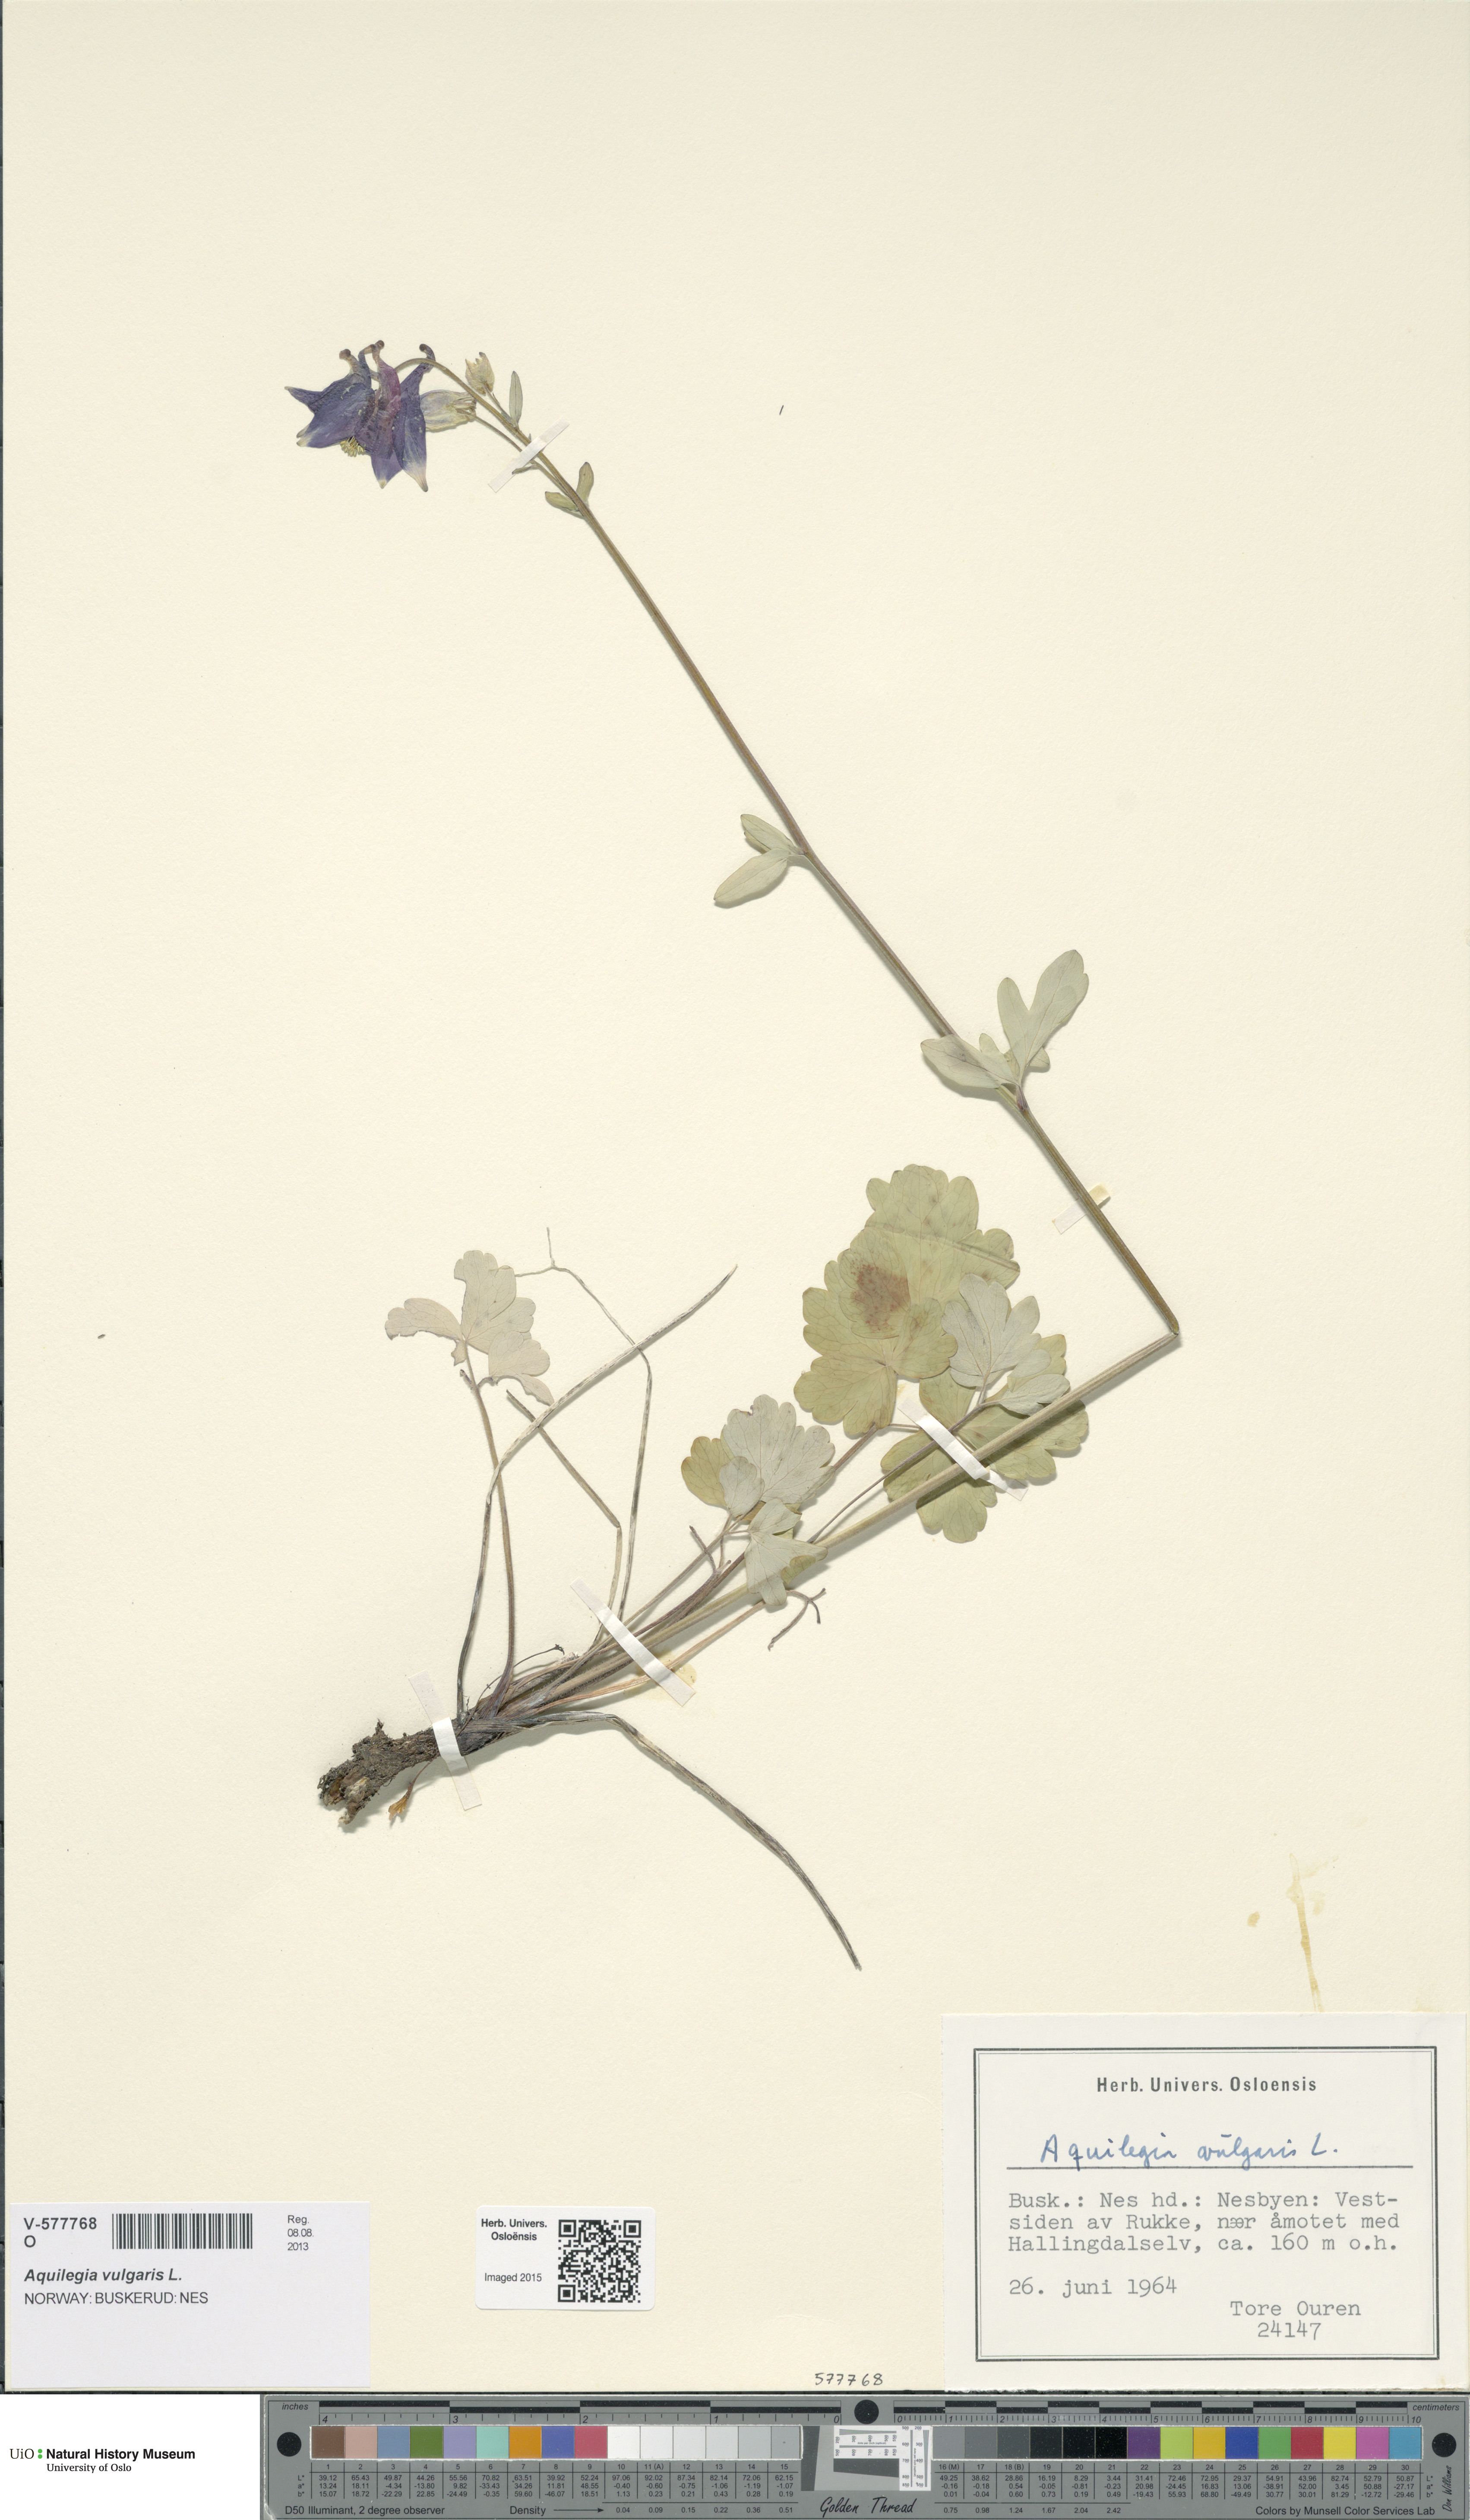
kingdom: Plantae
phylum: Tracheophyta
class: Magnoliopsida
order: Ranunculales
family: Ranunculaceae
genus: Aquilegia
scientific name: Aquilegia vulgaris
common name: Columbine
